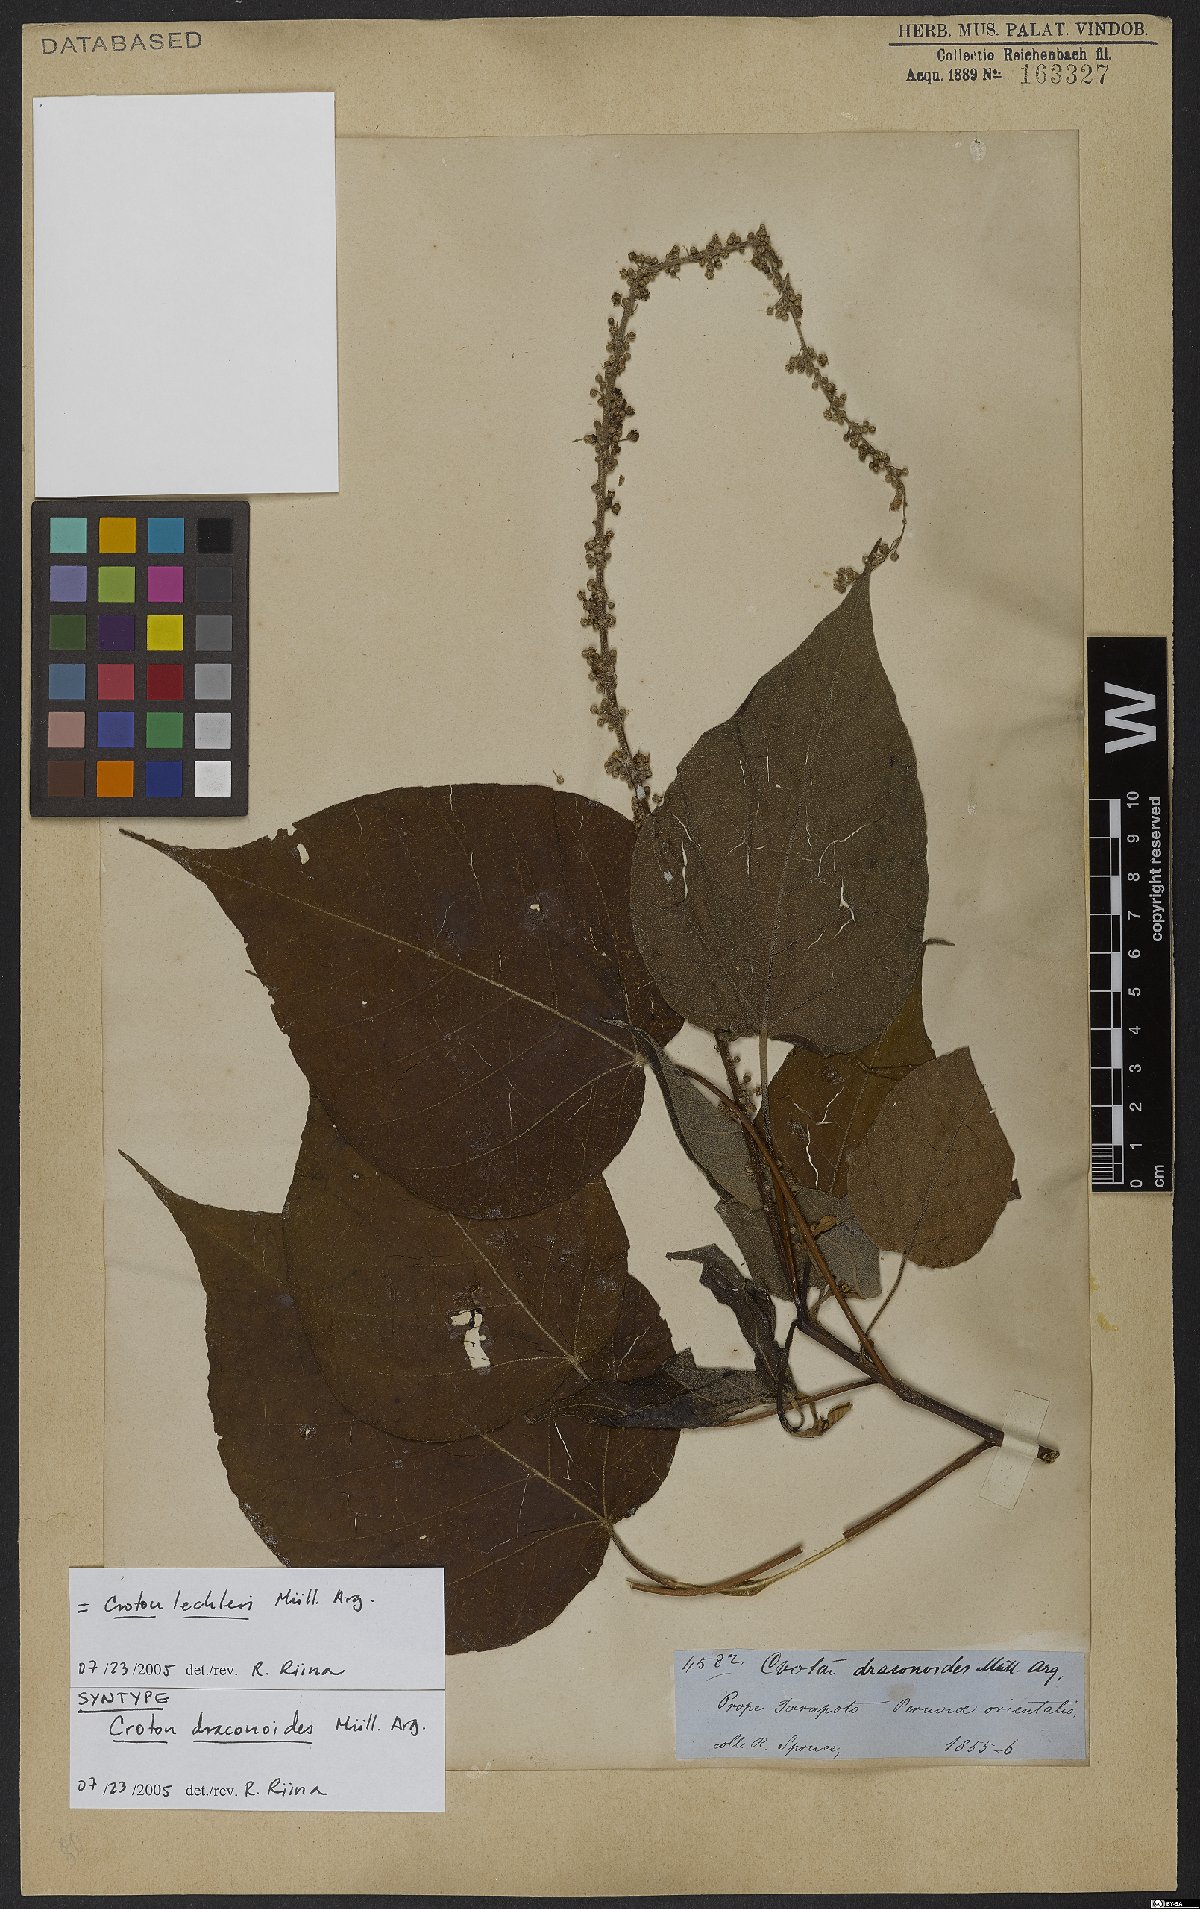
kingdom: Plantae
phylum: Tracheophyta
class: Magnoliopsida
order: Malpighiales
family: Euphorbiaceae
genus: Croton
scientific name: Croton lechleri
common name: Dragon's blood
